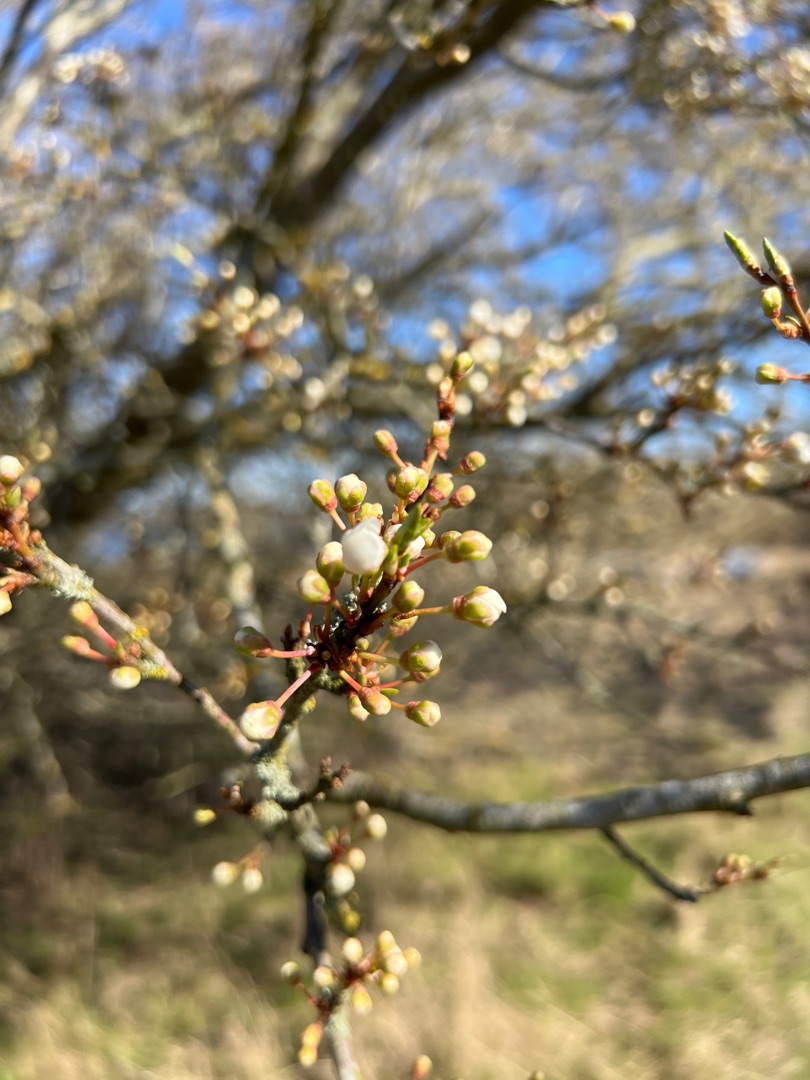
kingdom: Plantae
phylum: Tracheophyta
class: Magnoliopsida
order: Rosales
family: Rosaceae
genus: Prunus
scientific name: Prunus cerasifera
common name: Mirabel
